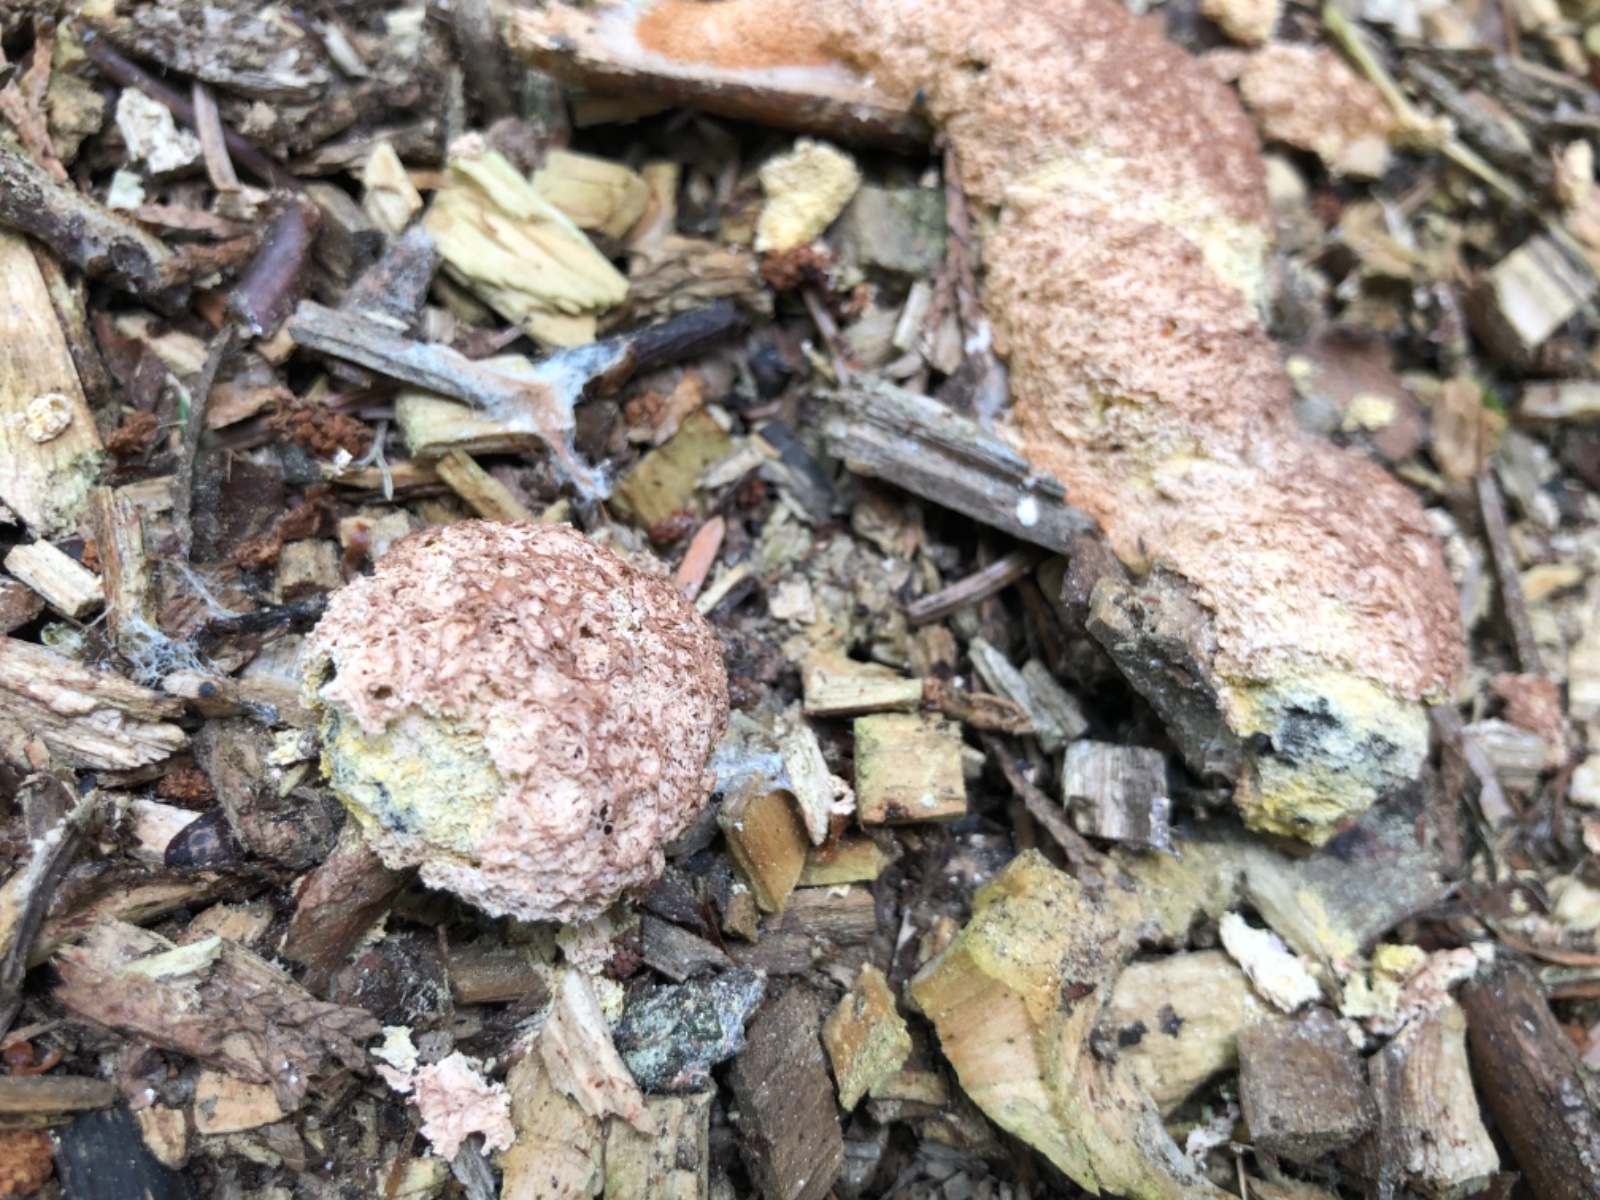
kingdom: Protozoa
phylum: Mycetozoa
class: Myxomycetes
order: Physarales
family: Physaraceae
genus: Fuligo
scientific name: Fuligo septica
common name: Dog vomit slime mold
